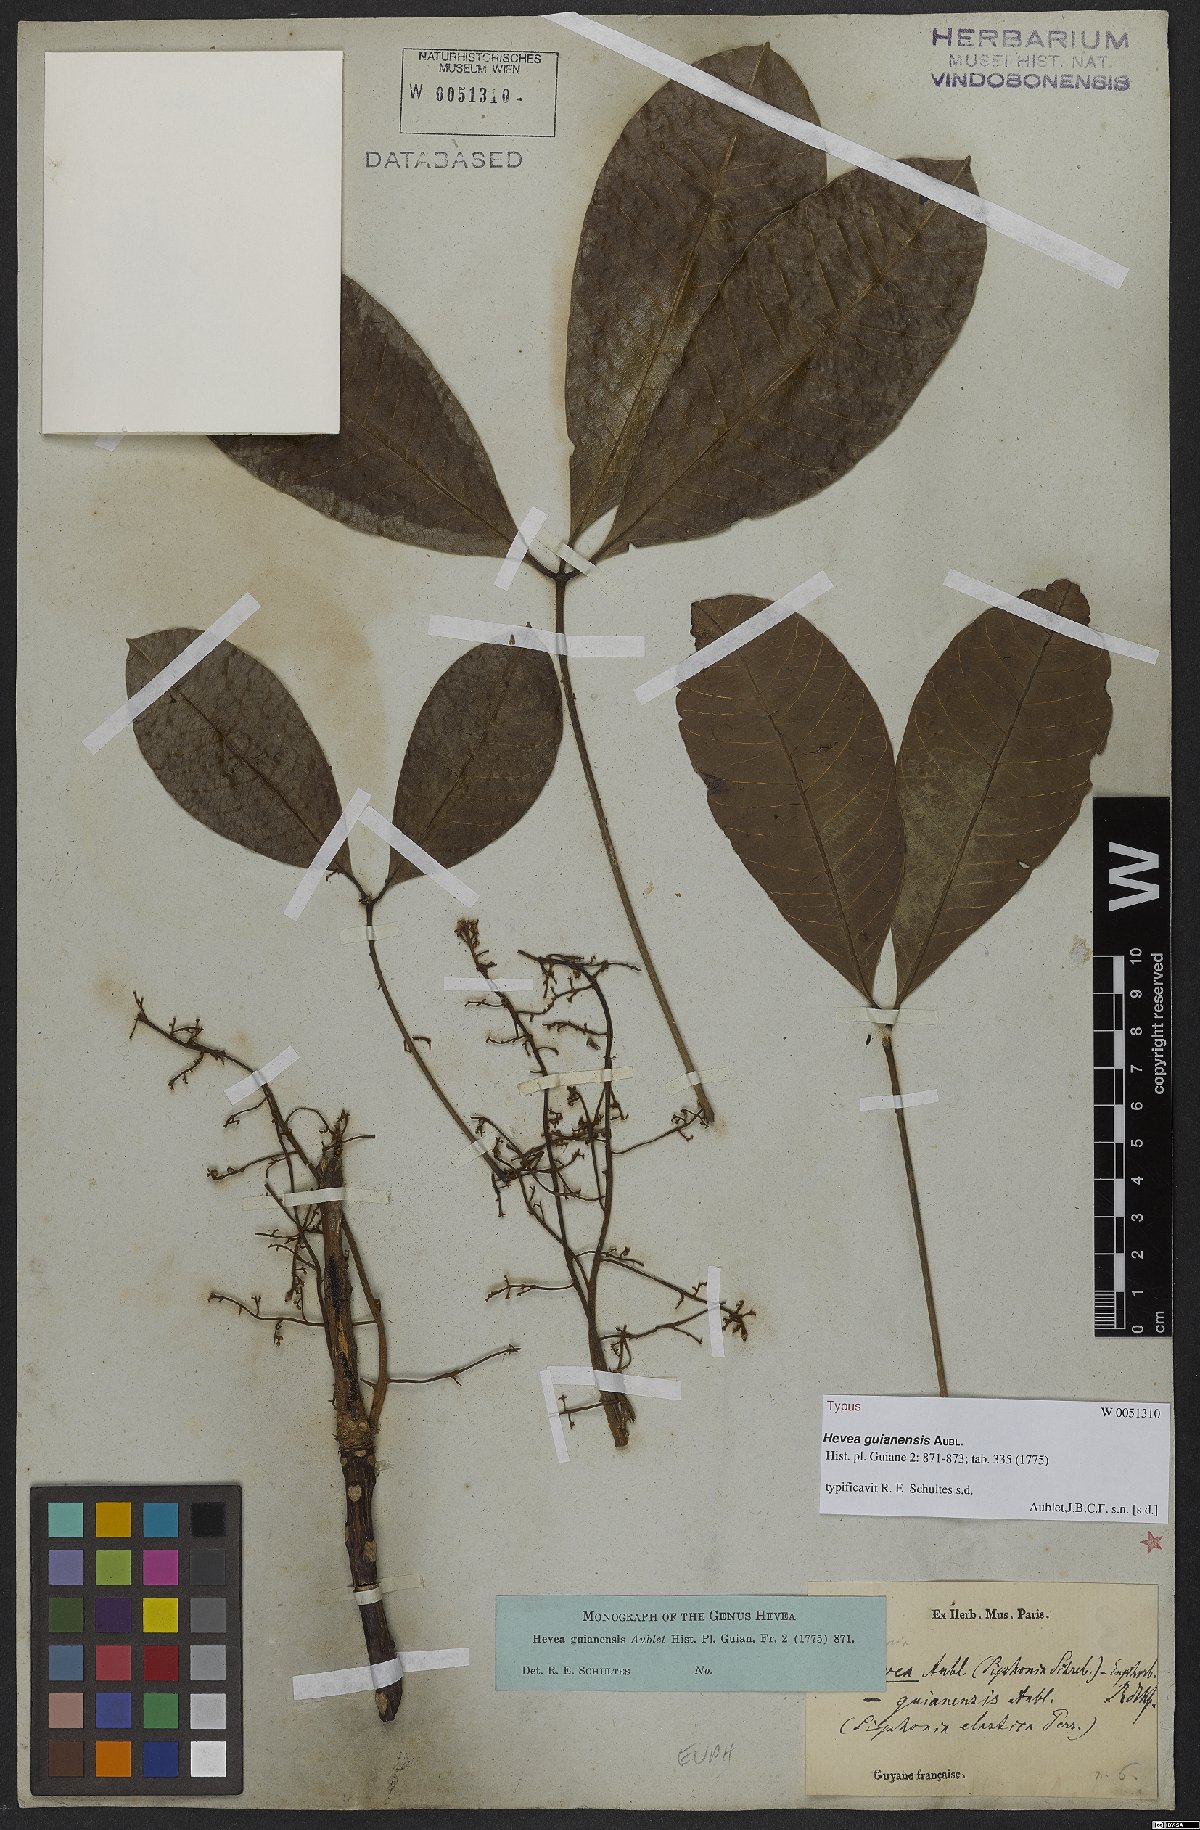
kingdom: Plantae
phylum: Tracheophyta
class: Magnoliopsida
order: Malpighiales
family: Euphorbiaceae
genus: Hevea
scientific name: Hevea guianensis
